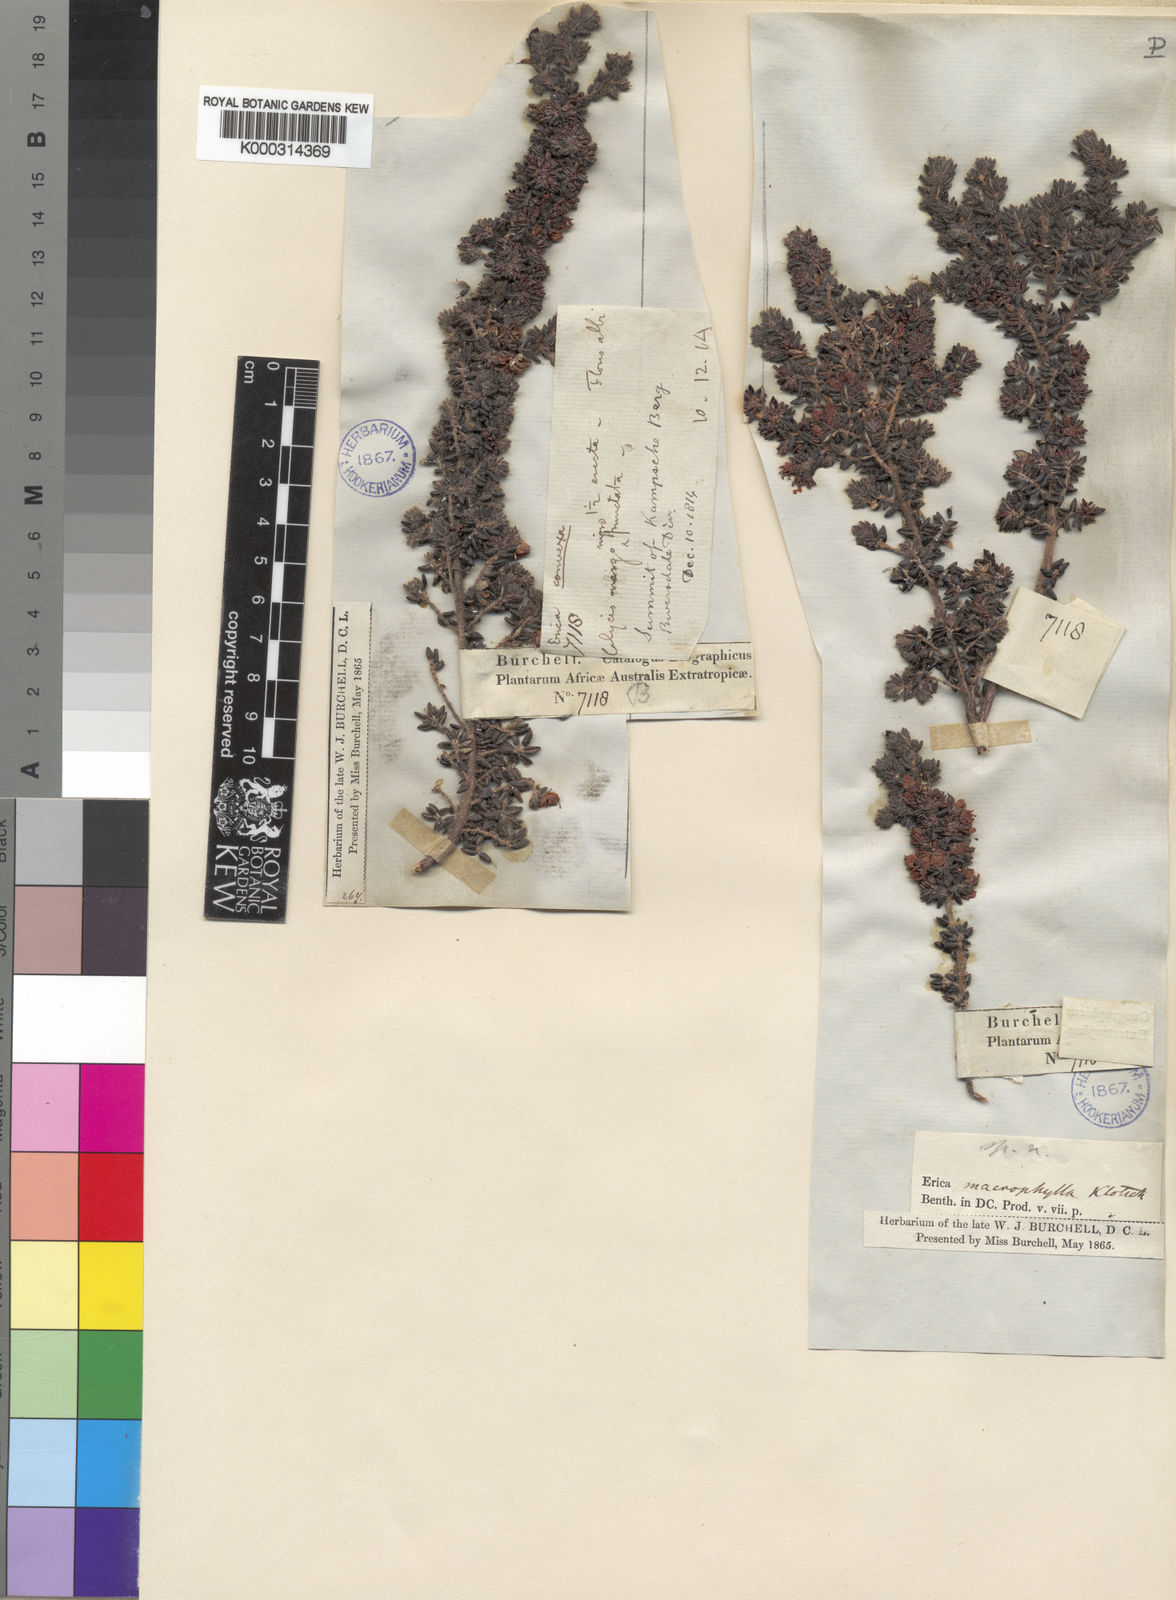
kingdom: Plantae
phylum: Tracheophyta
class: Magnoliopsida
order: Ericales
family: Ericaceae
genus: Erica
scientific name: Erica macrophylla
